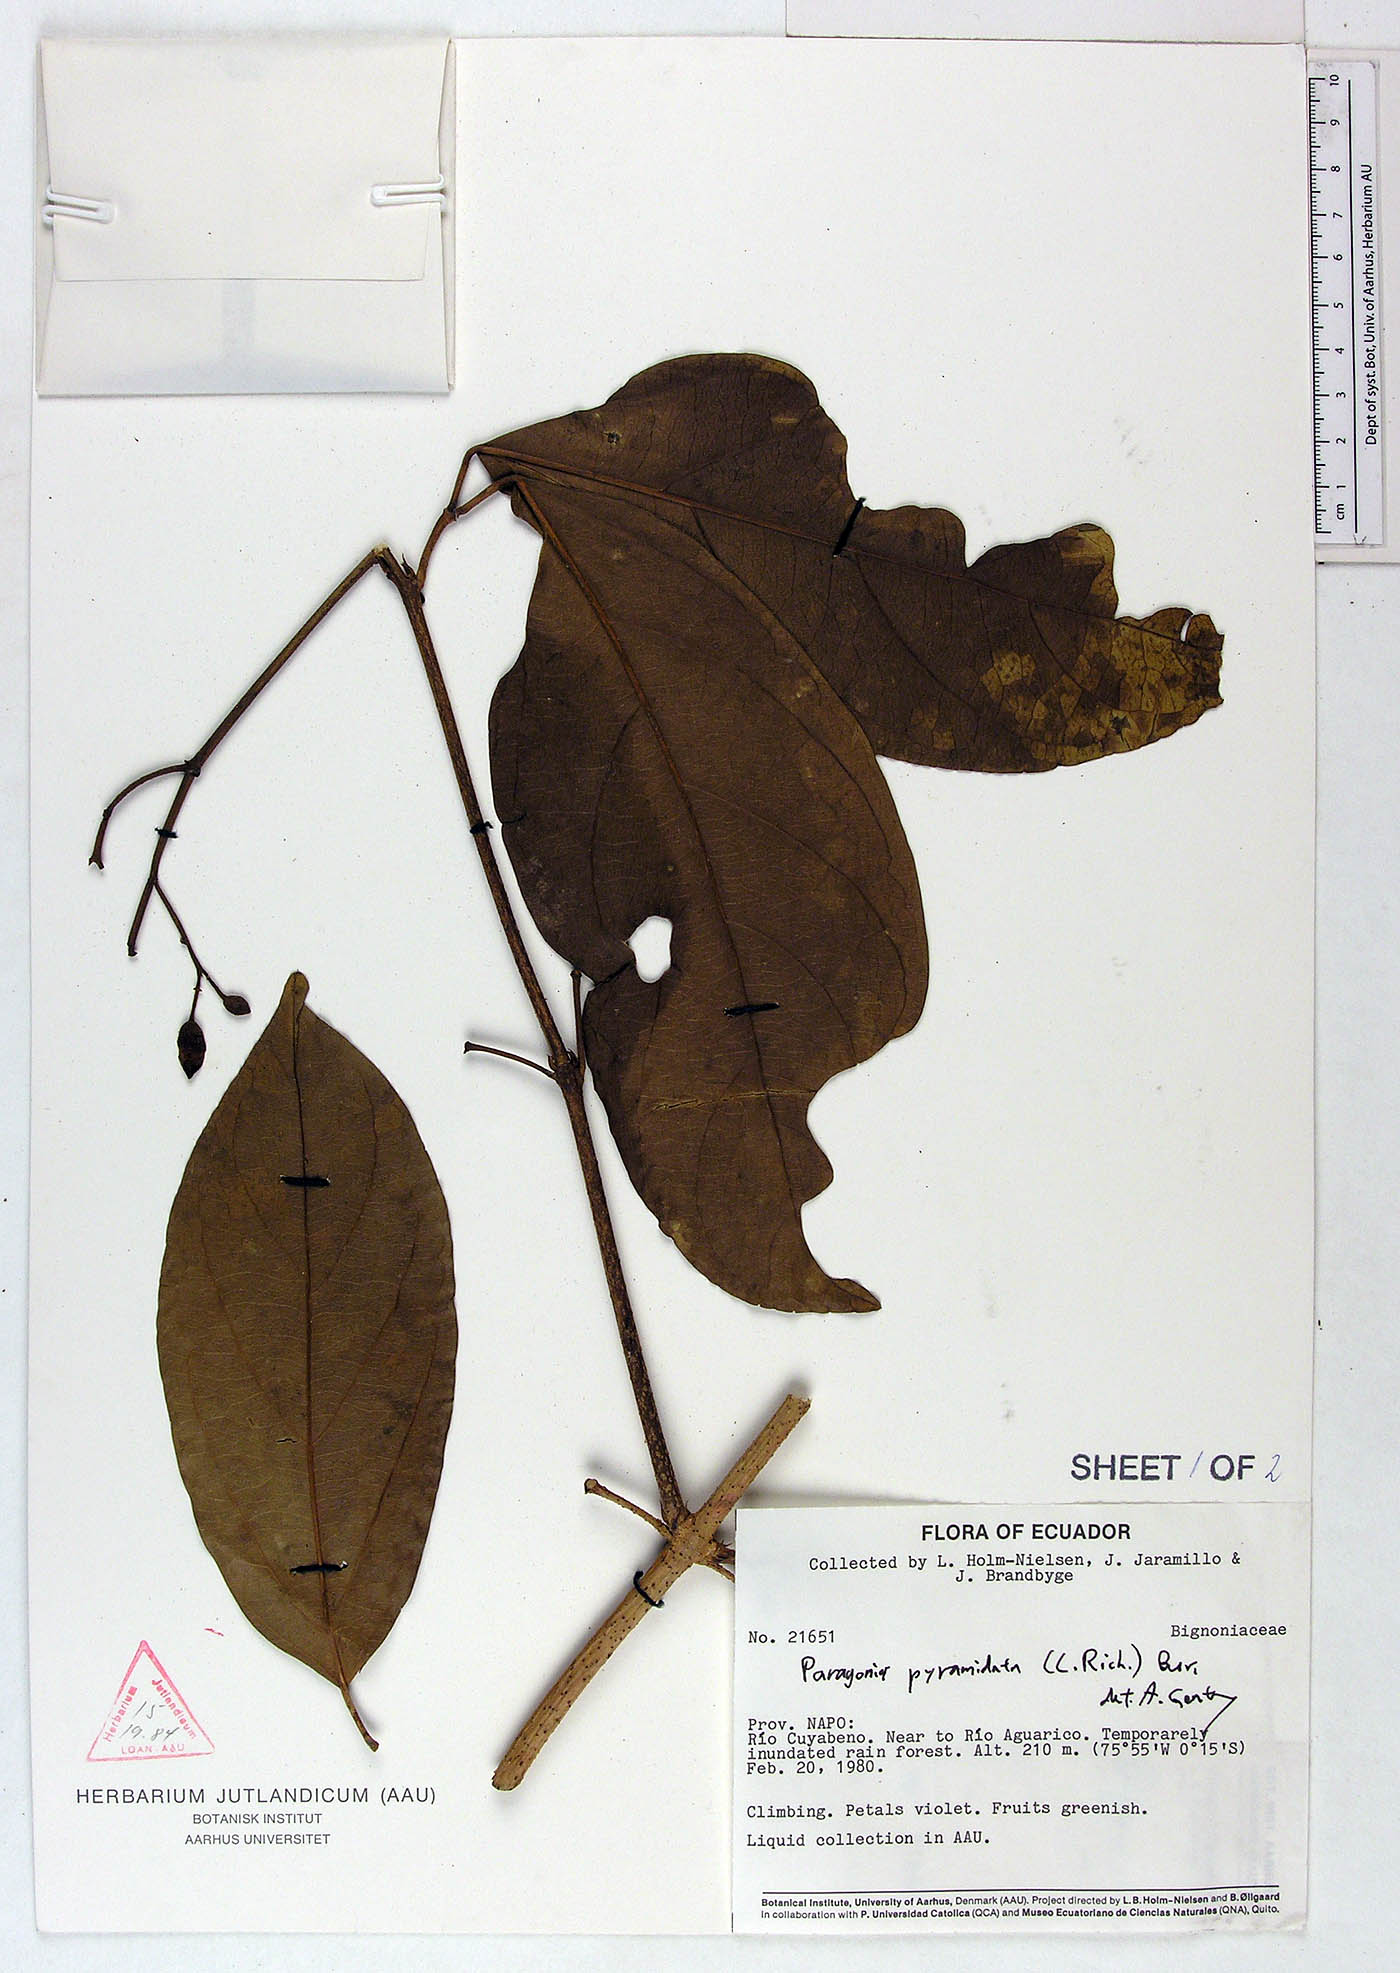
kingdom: Plantae
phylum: Tracheophyta
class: Magnoliopsida
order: Lamiales
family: Bignoniaceae
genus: Tanaecium
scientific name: Tanaecium pyramidatum
